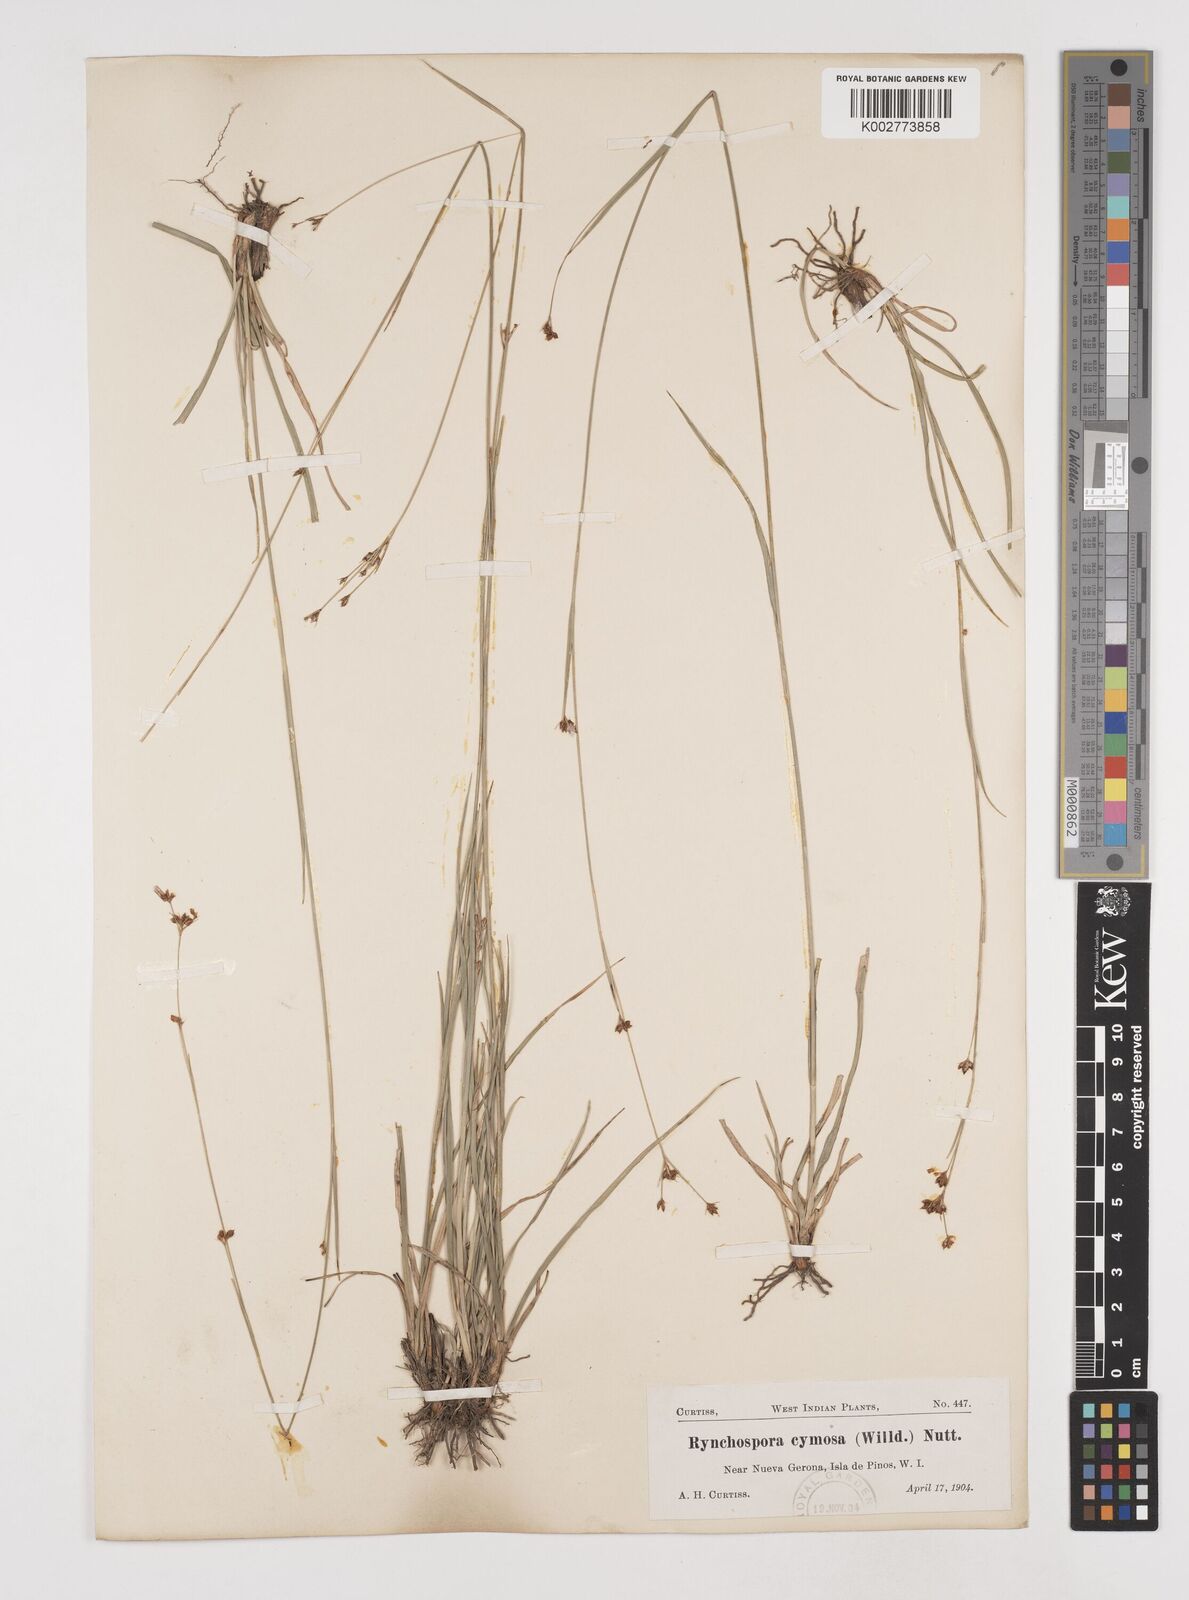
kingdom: Plantae
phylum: Tracheophyta
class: Liliopsida
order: Poales
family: Cyperaceae
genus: Rhynchospora
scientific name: Rhynchospora globularis
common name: Globe beaksedge
